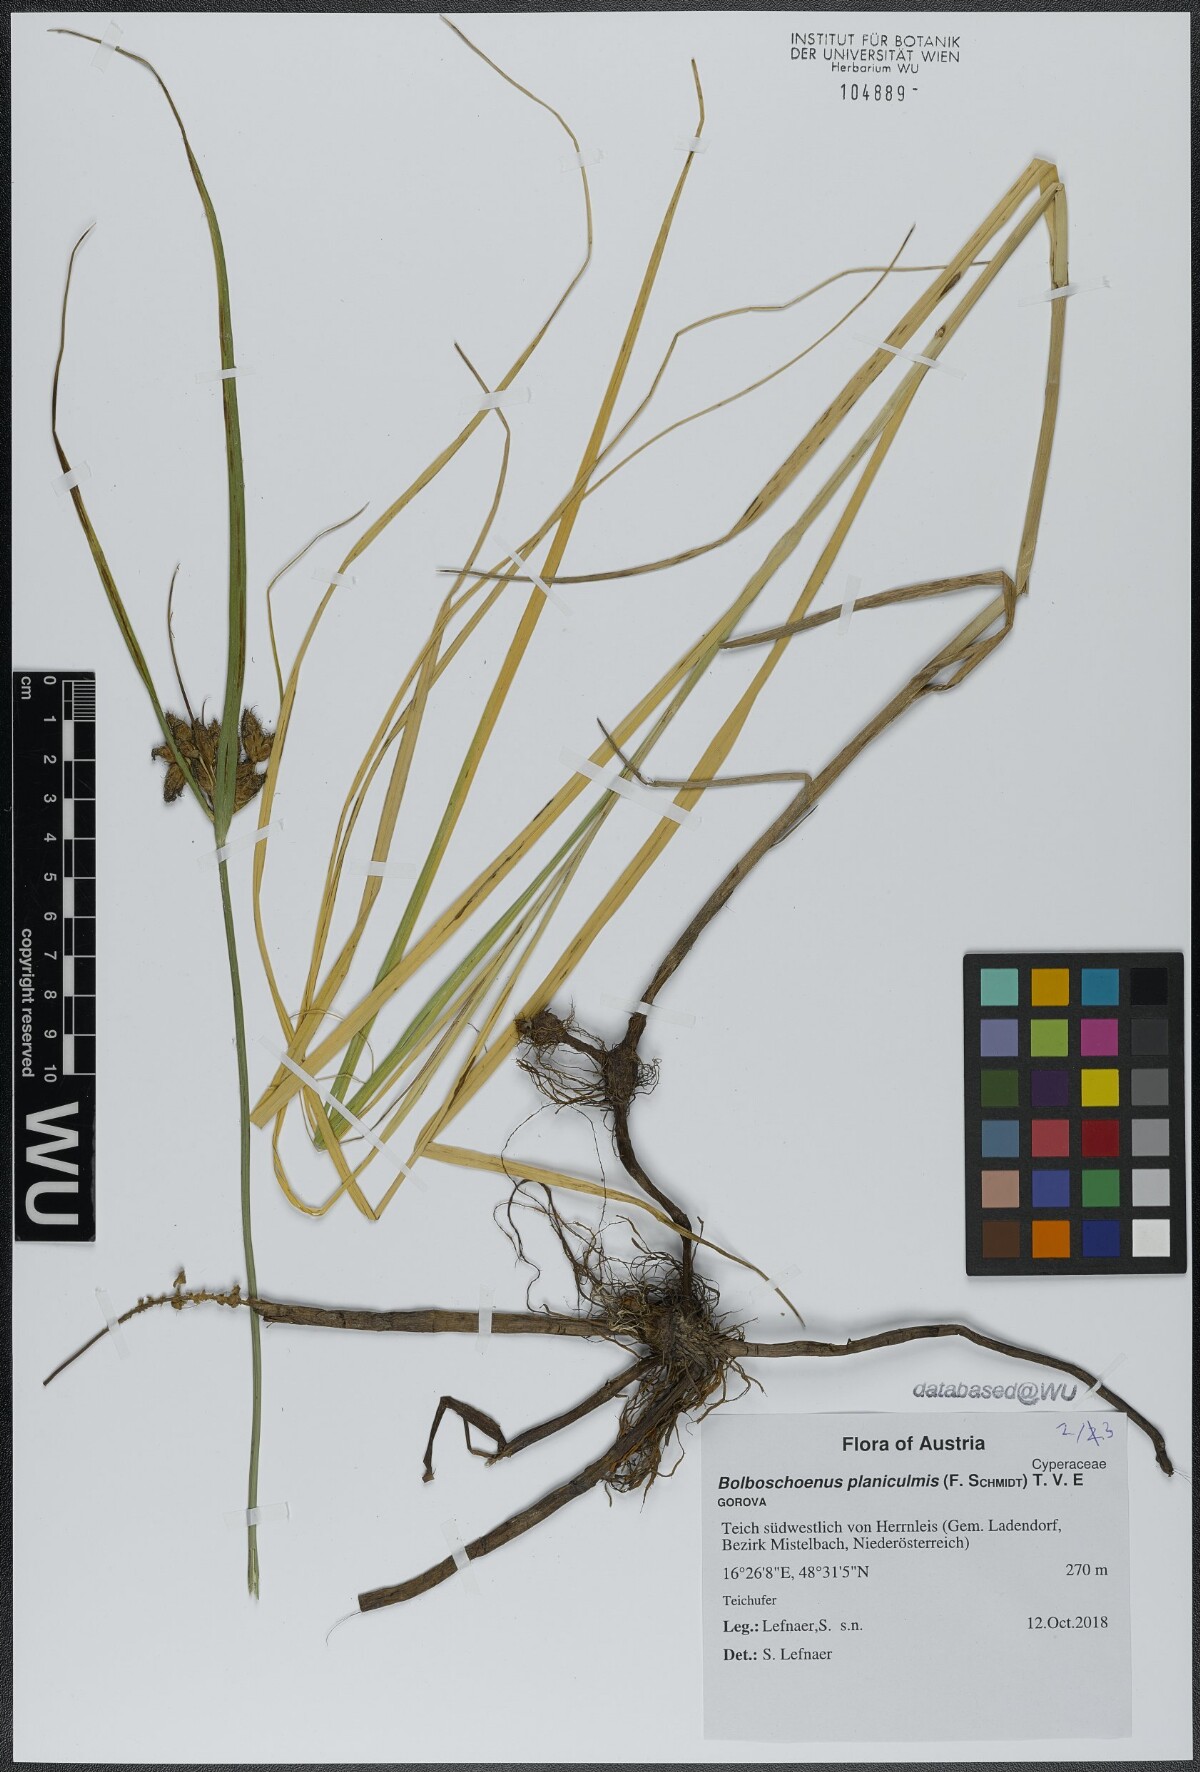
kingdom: Plantae
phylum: Tracheophyta
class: Liliopsida
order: Poales
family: Cyperaceae
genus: Bolboschoenus
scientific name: Bolboschoenus planiculmis
